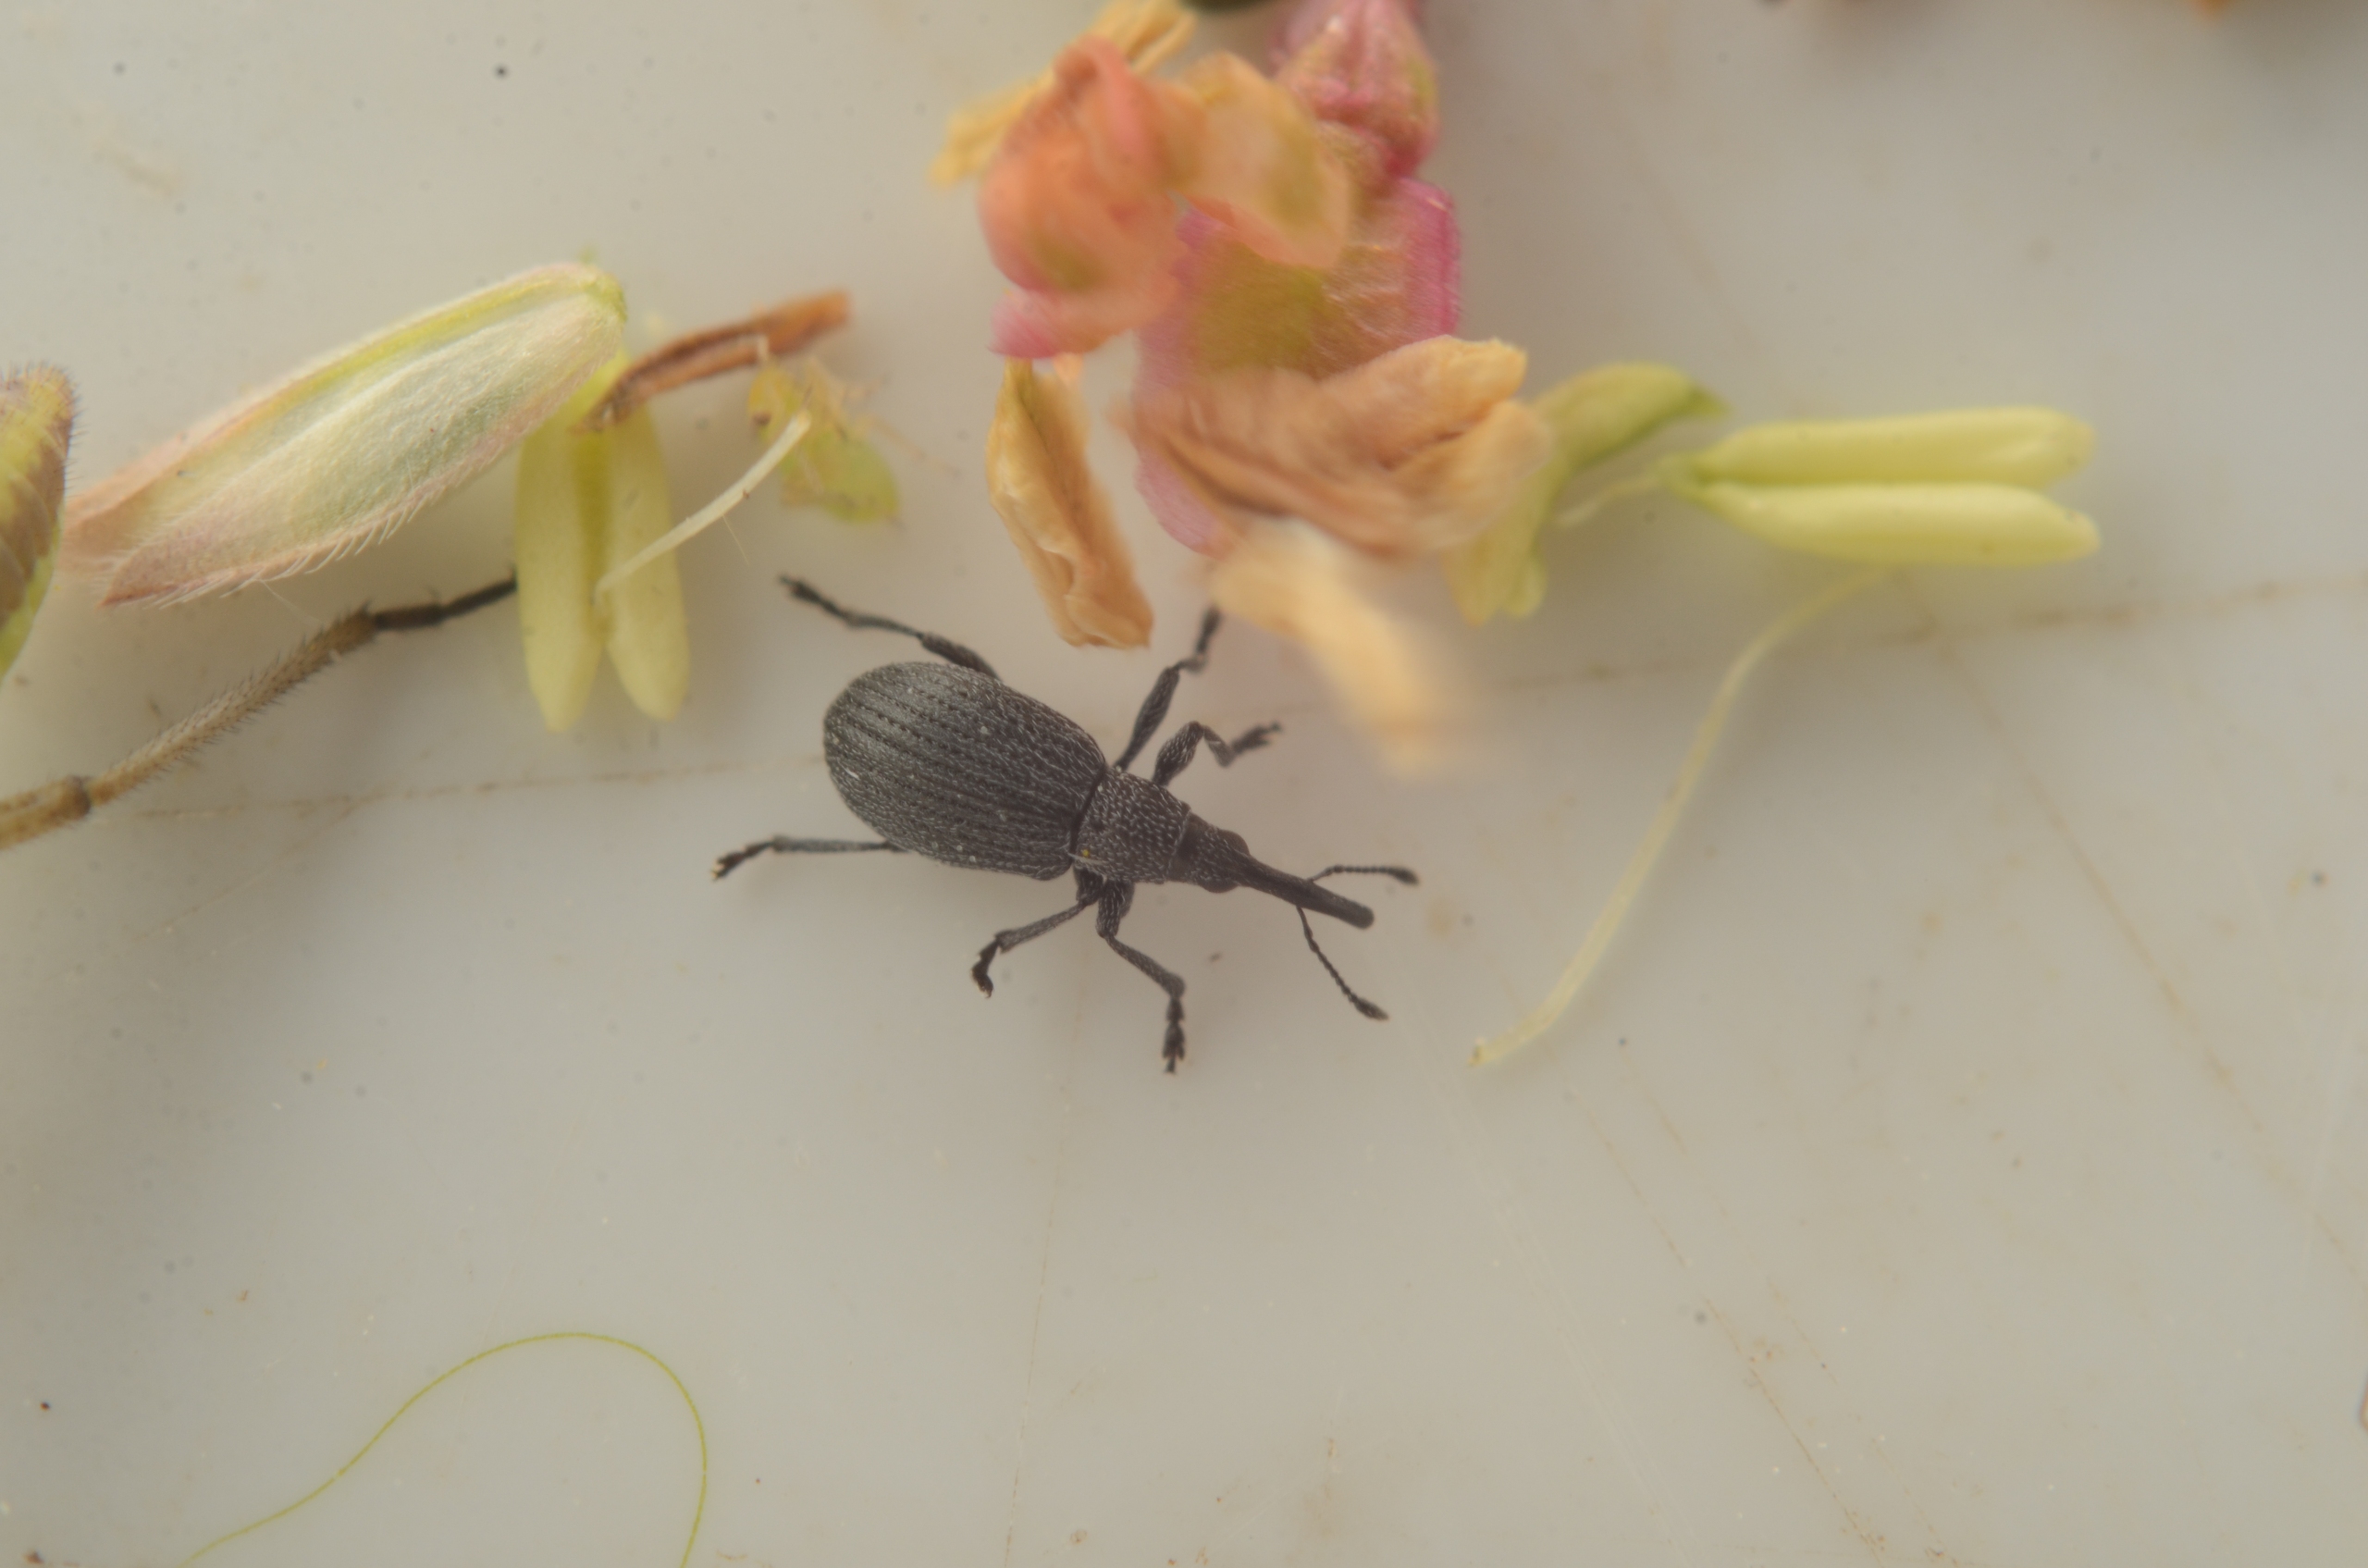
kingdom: Animalia
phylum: Arthropoda
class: Insecta
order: Coleoptera
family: Apionidae
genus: Ischnopterapion
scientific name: Ischnopterapion loti
